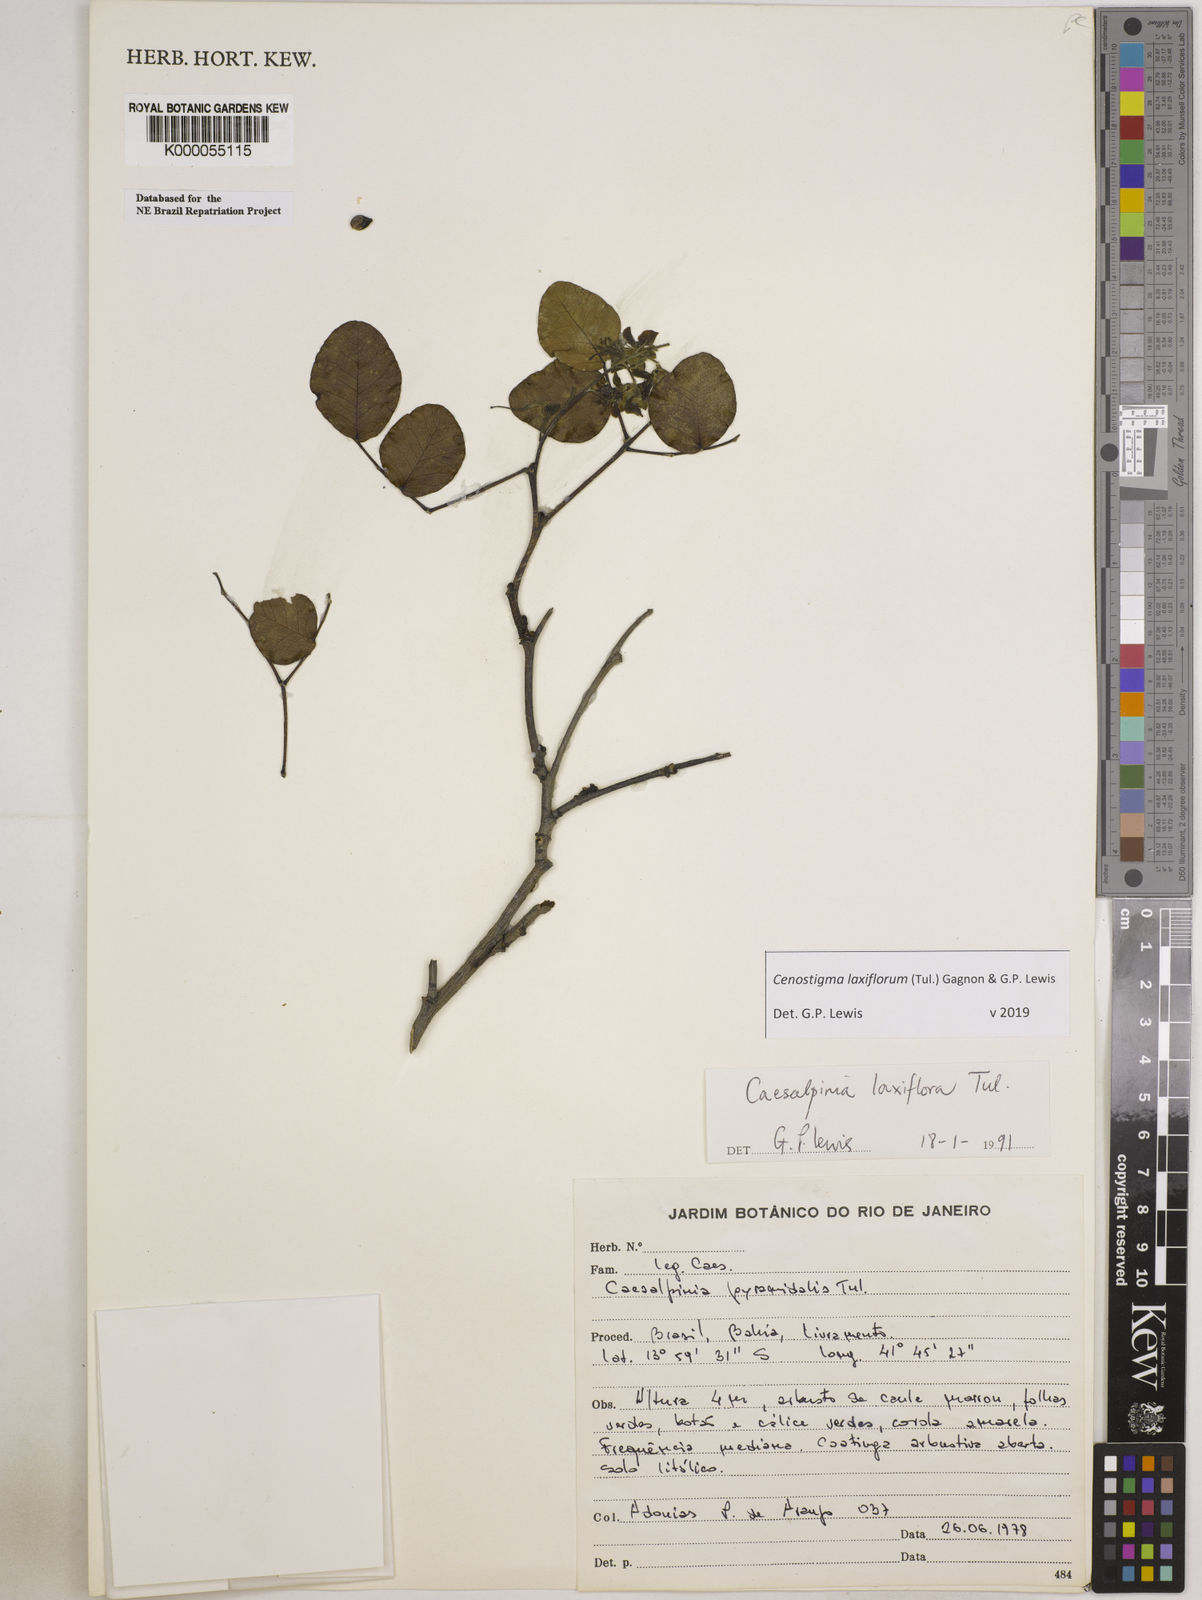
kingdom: Plantae
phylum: Tracheophyta
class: Magnoliopsida
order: Fabales
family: Fabaceae
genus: Cenostigma
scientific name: Cenostigma laxiflorum
